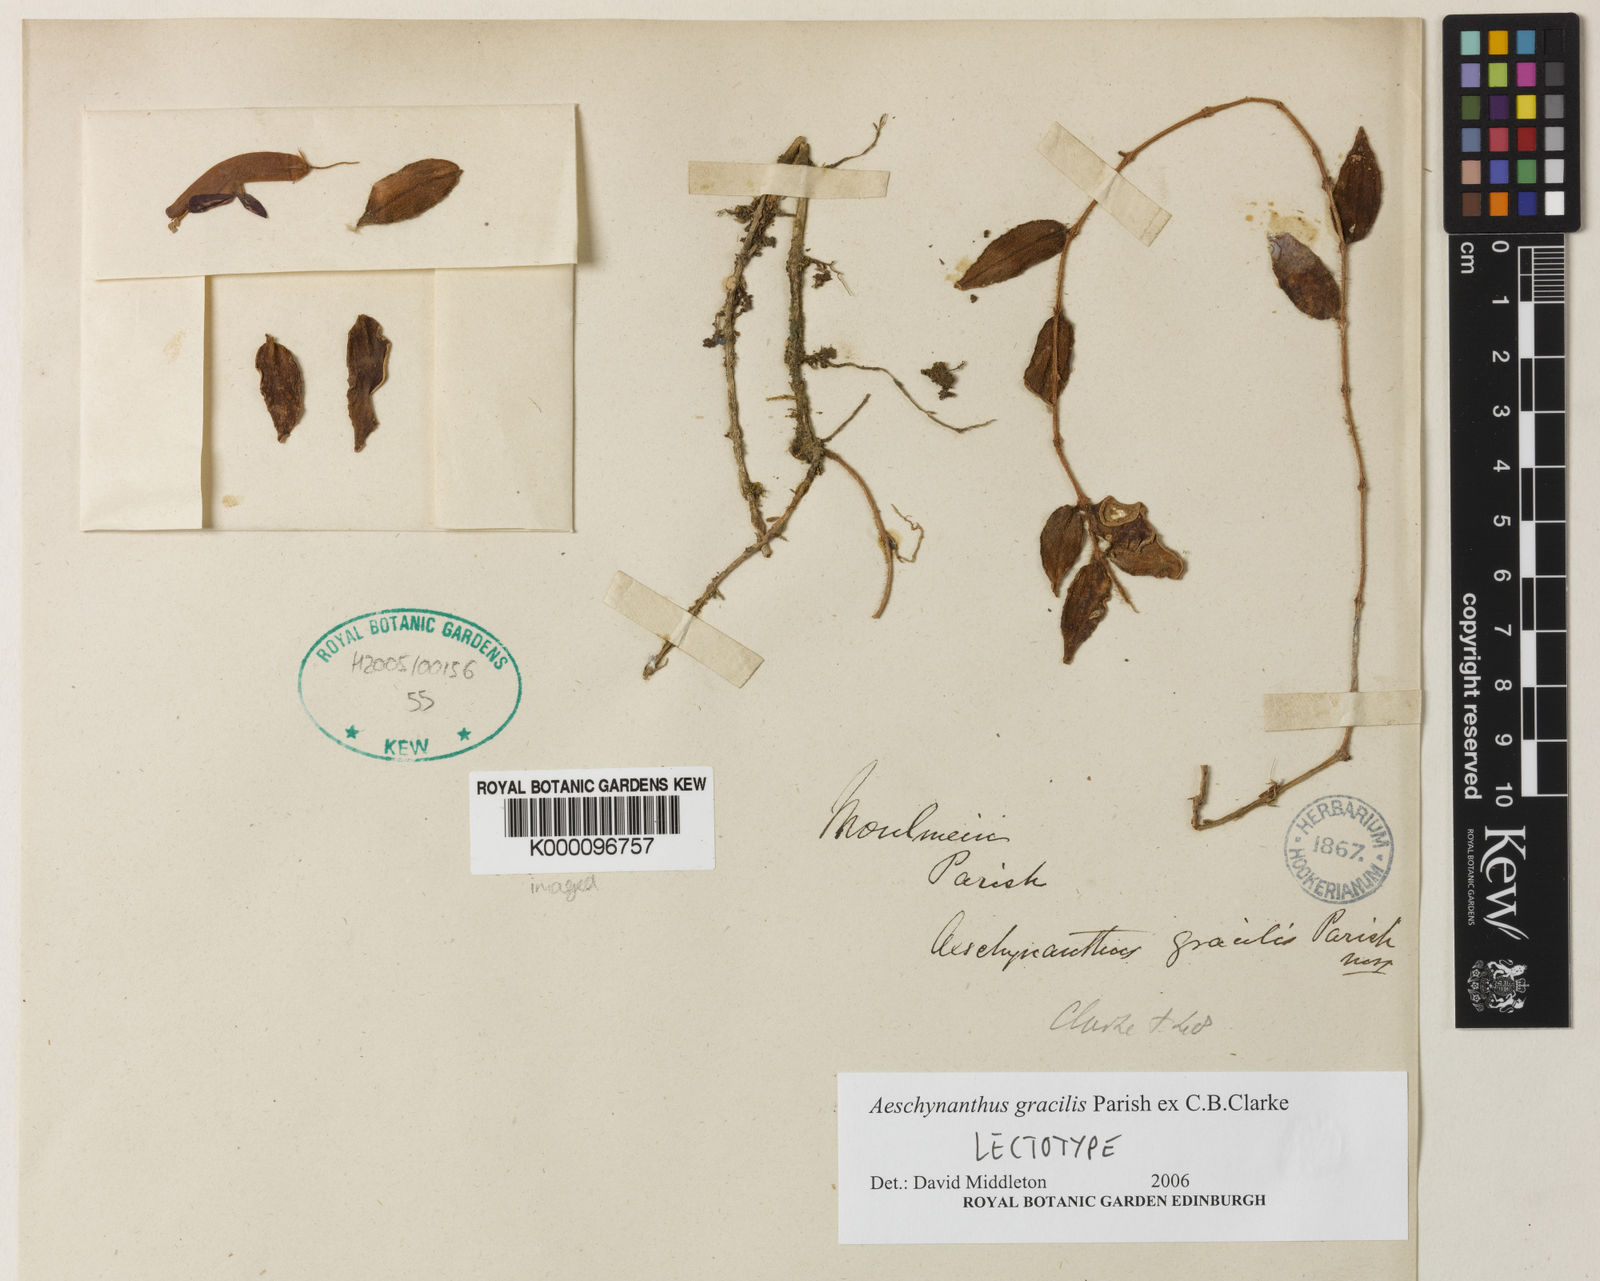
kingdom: Plantae
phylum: Tracheophyta
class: Magnoliopsida
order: Lamiales
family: Gesneriaceae
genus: Aeschynanthus
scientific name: Aeschynanthus gracilis
